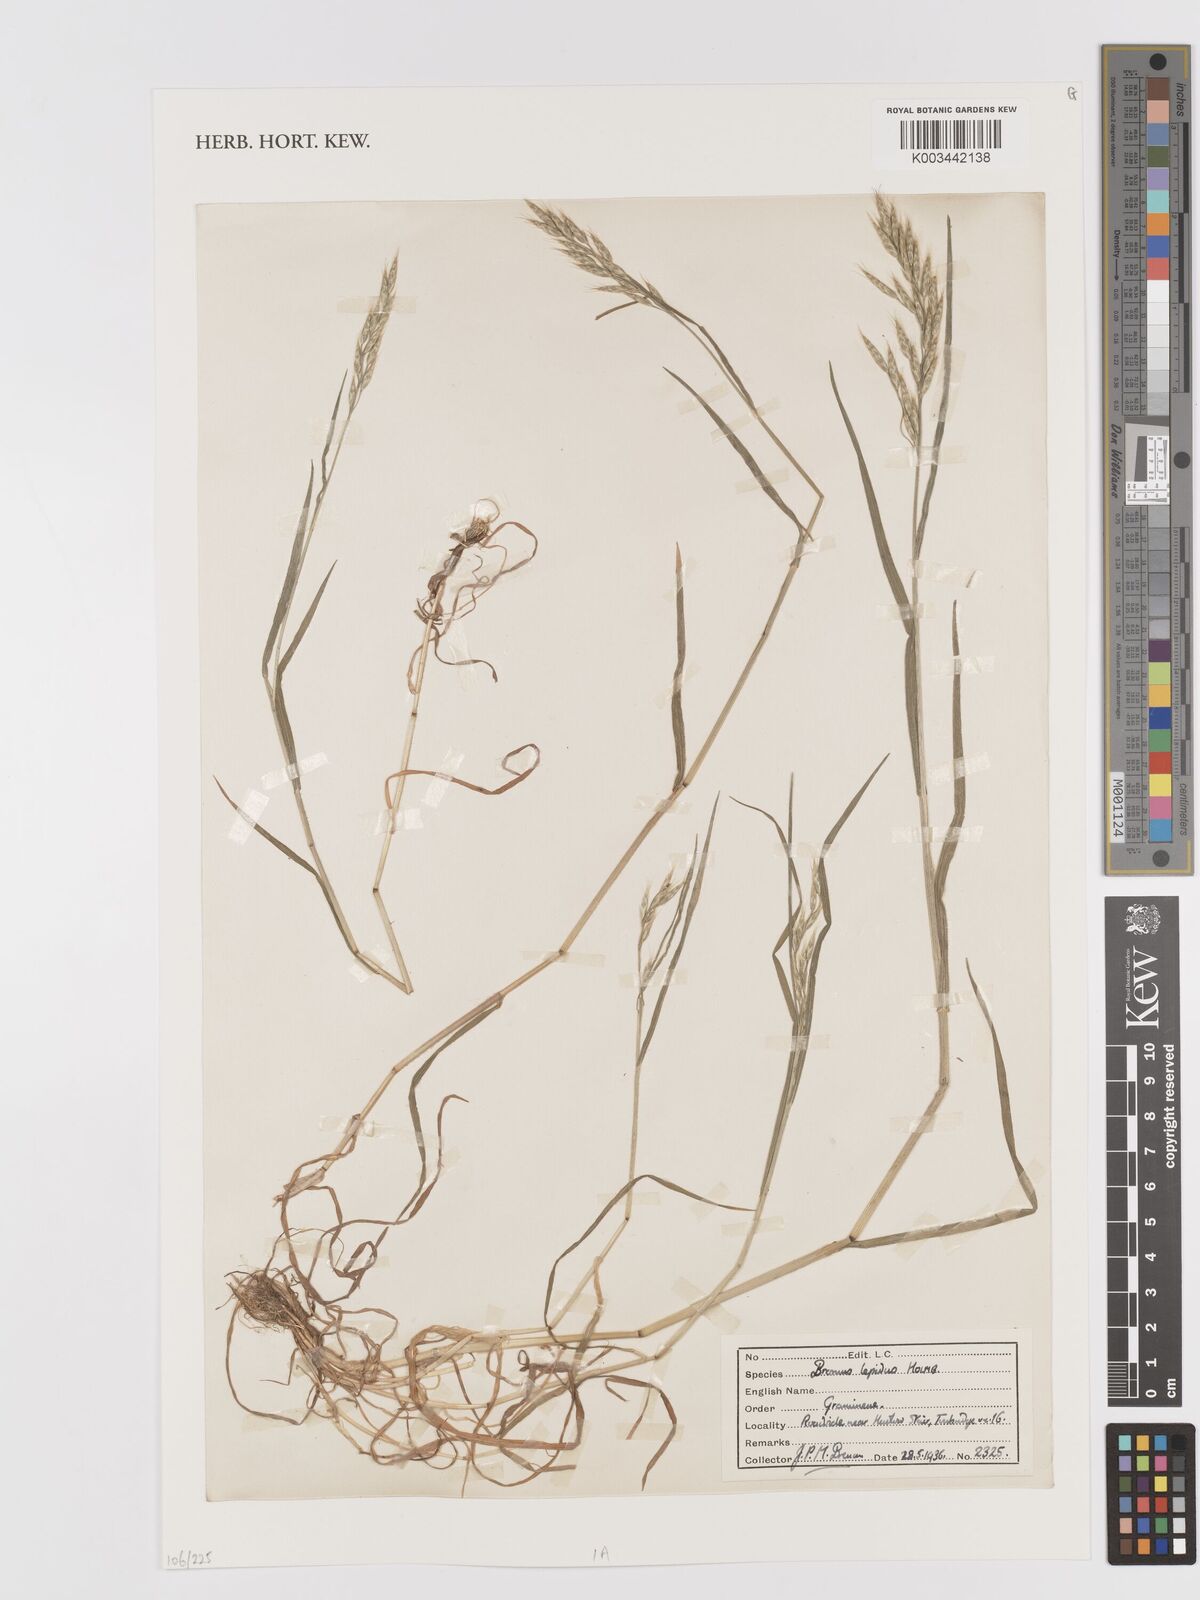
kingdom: Plantae
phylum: Tracheophyta
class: Liliopsida
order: Poales
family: Poaceae
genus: Bromus
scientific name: Bromus lepidus
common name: Slender soft-brome
